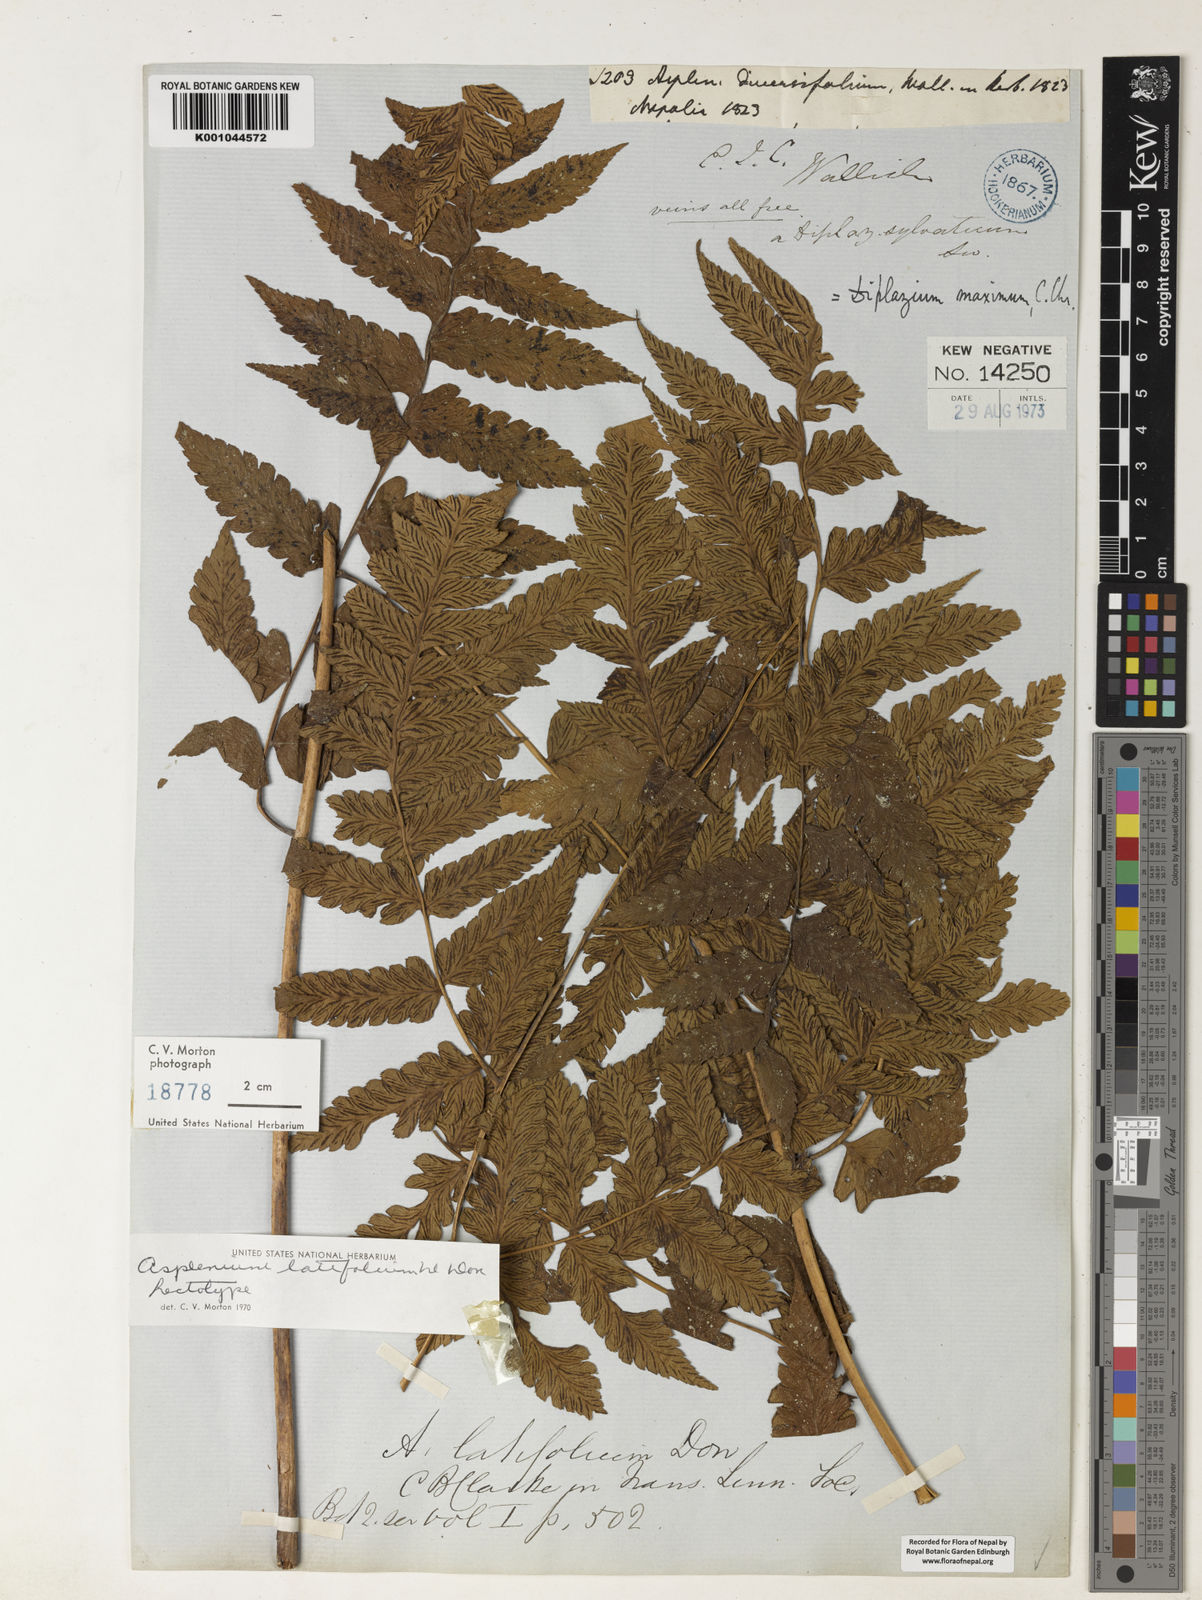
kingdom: Plantae
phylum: Tracheophyta
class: Polypodiopsida
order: Polypodiales
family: Athyriaceae
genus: Diplazium
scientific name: Diplazium dilatatum
